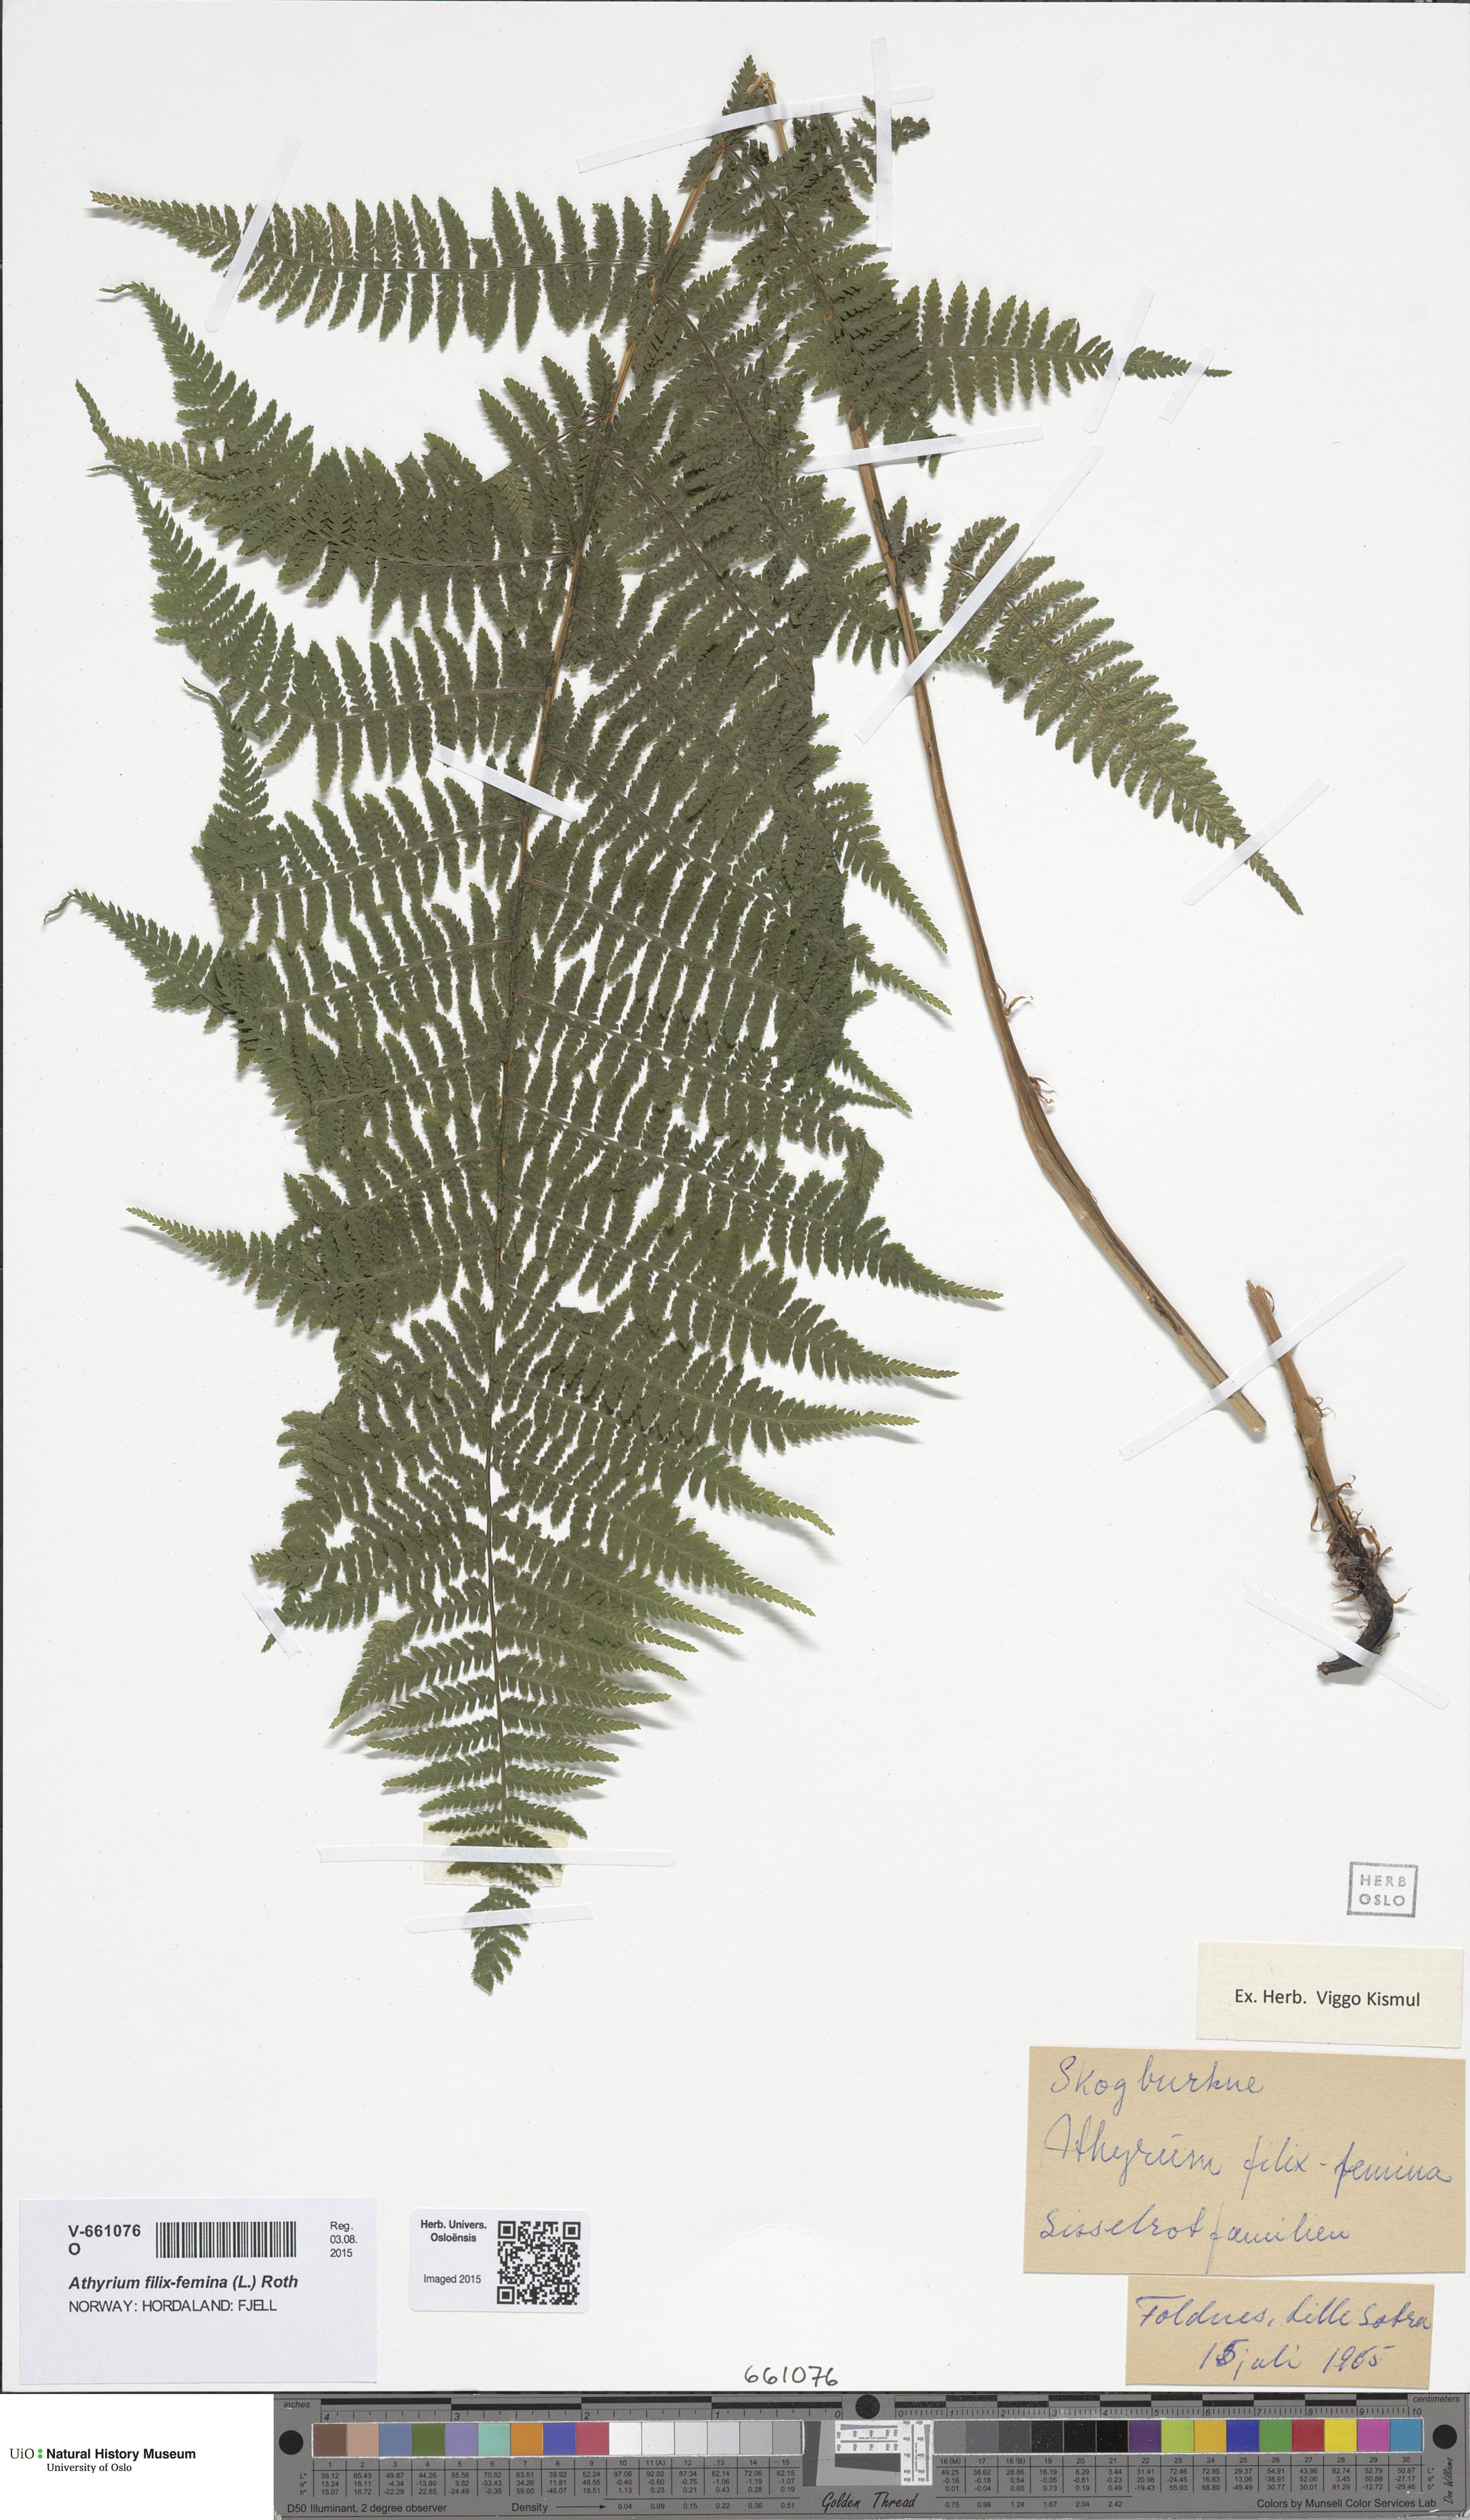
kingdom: Plantae
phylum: Tracheophyta
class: Polypodiopsida
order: Polypodiales
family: Athyriaceae
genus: Athyrium
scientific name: Athyrium filix-femina
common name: Lady fern
